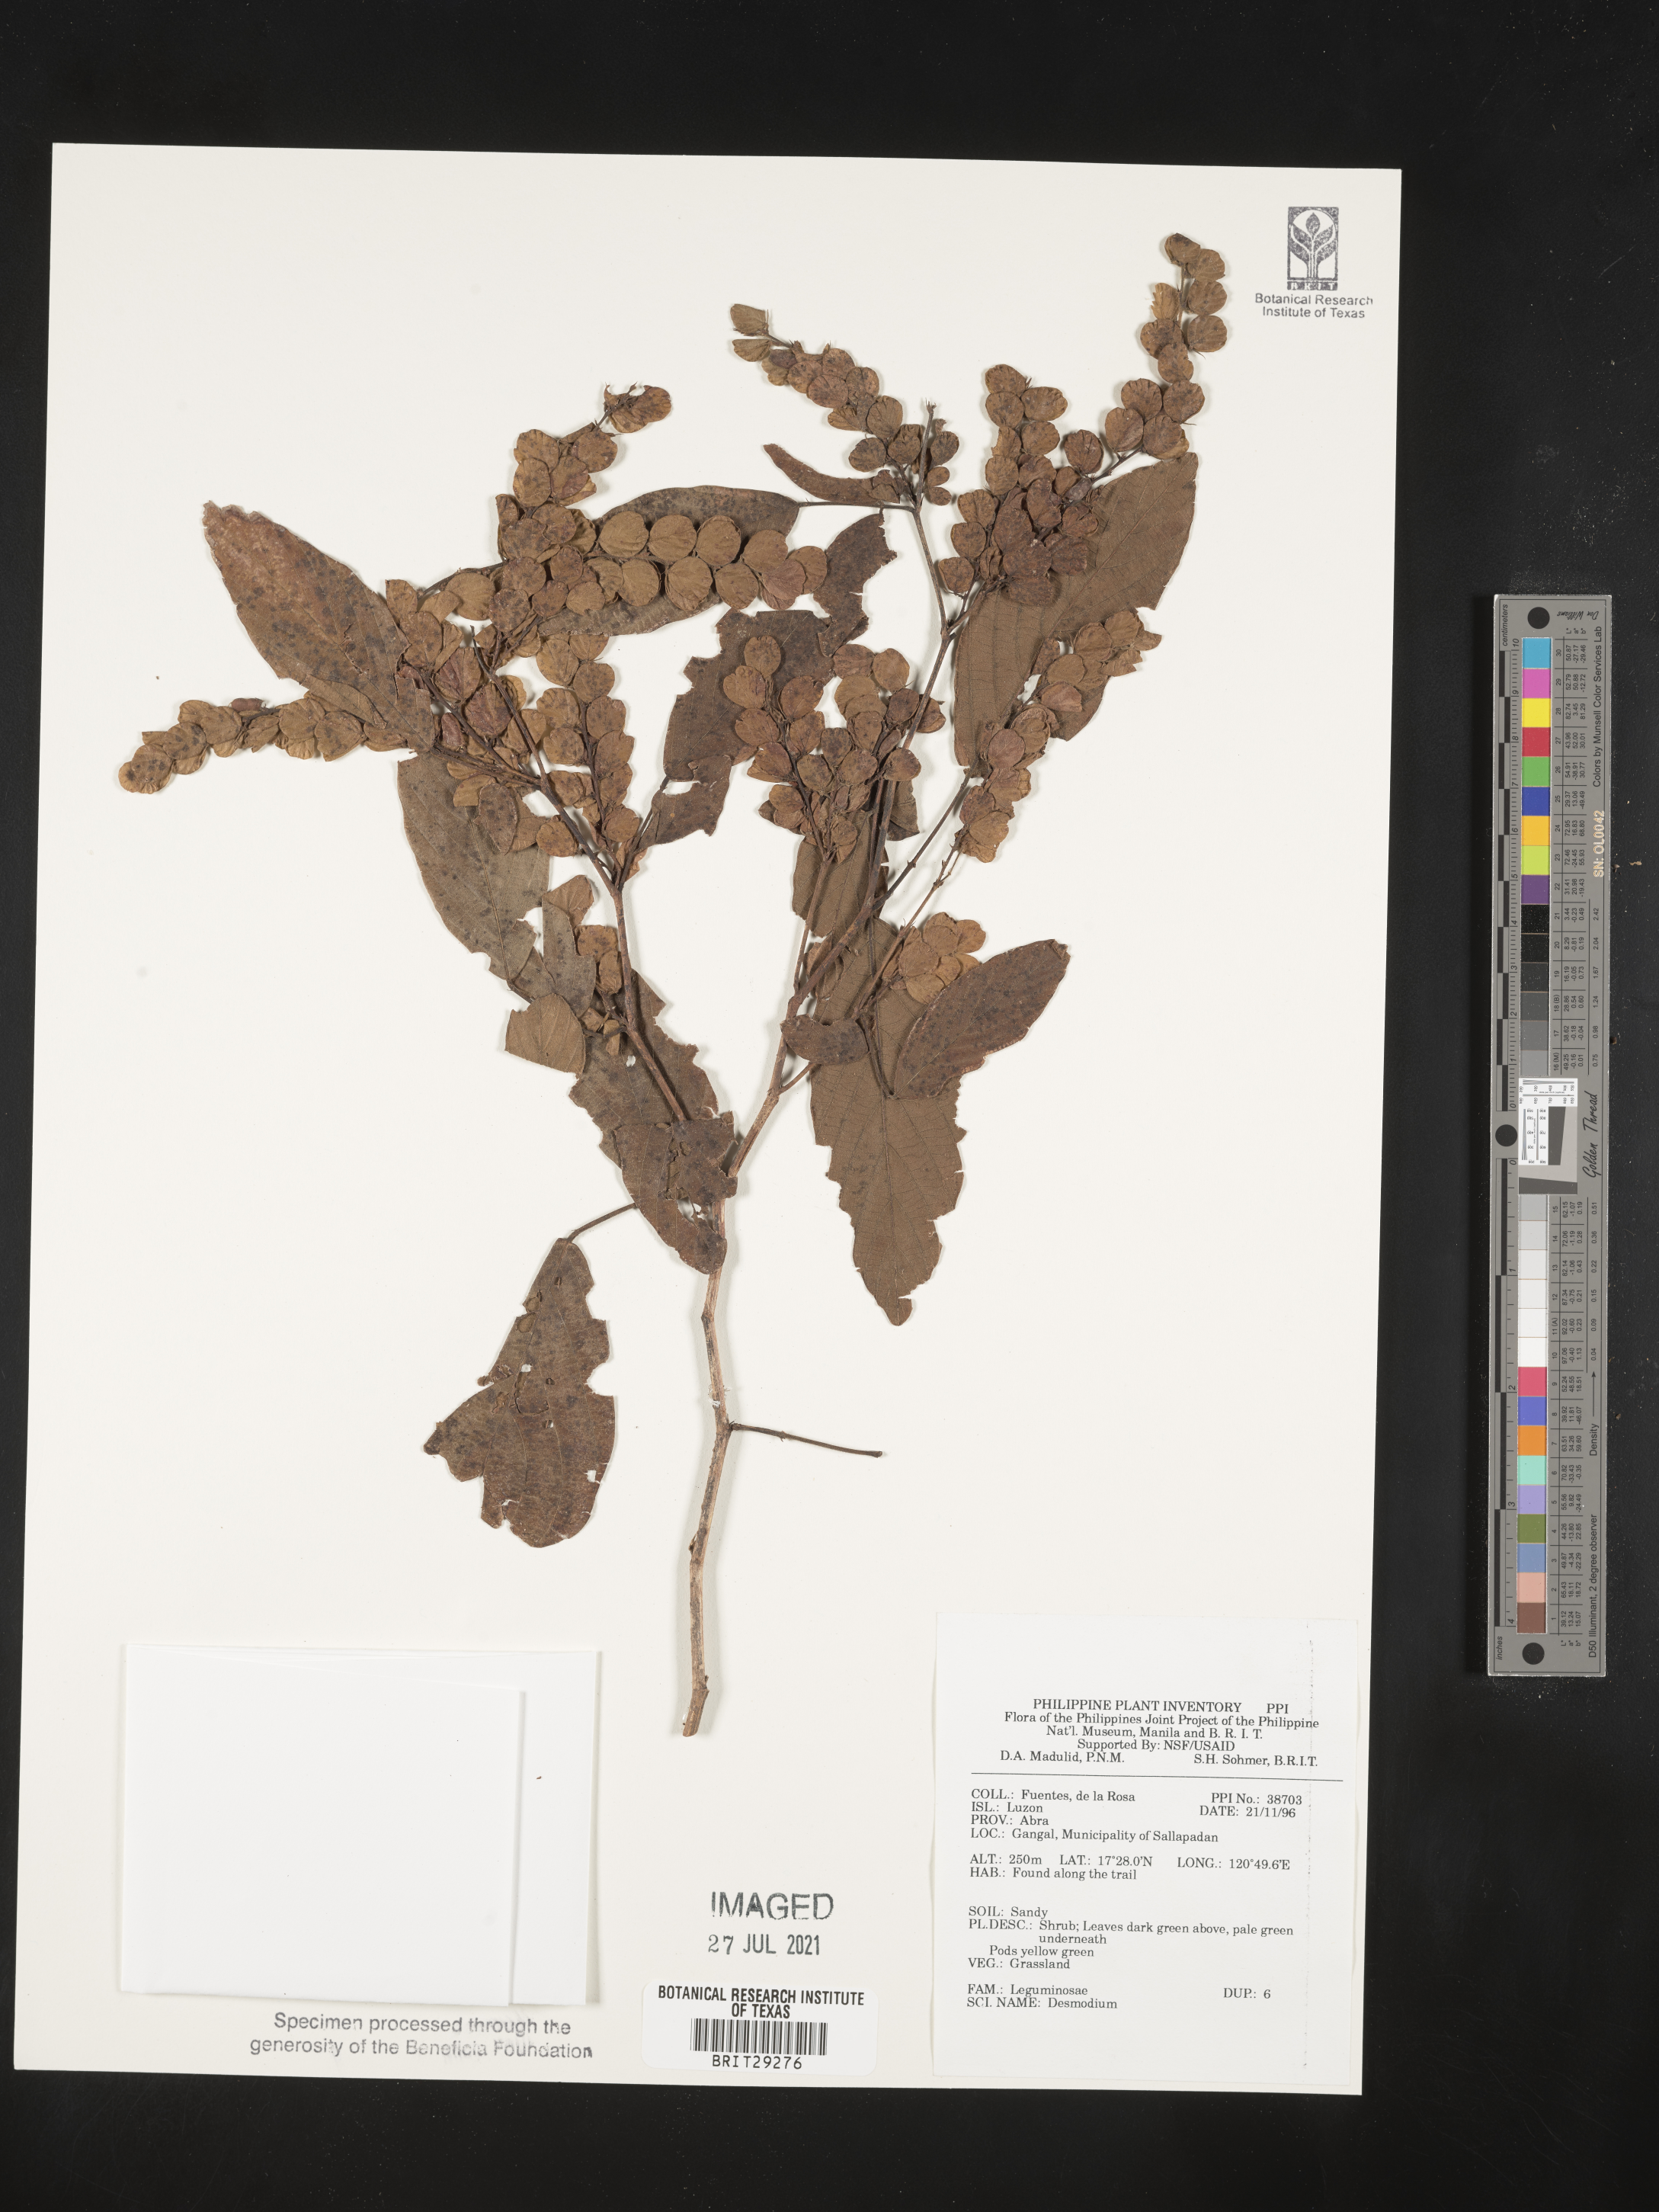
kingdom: Plantae
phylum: Tracheophyta
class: Magnoliopsida
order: Fabales
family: Fabaceae
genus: Desmodium
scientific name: Desmodium
